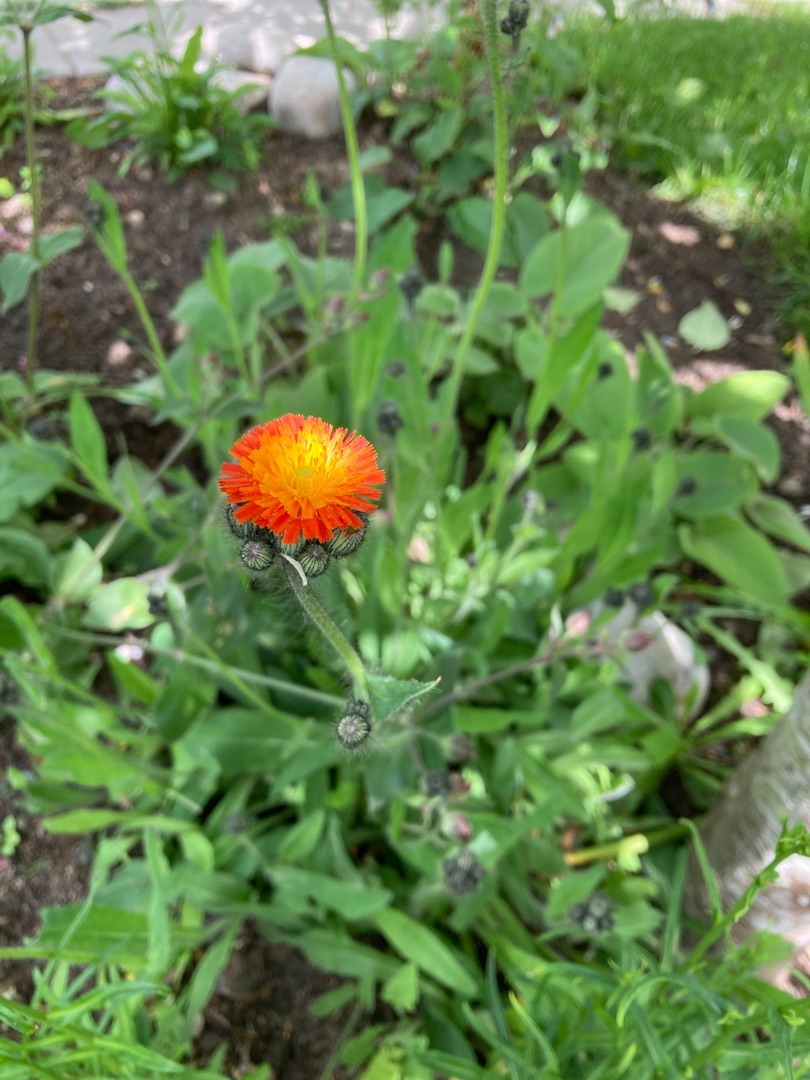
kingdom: Plantae
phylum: Tracheophyta
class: Magnoliopsida
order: Asterales
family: Asteraceae
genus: Pilosella
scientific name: Pilosella aurantiaca
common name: Pomerans-høgeurt
